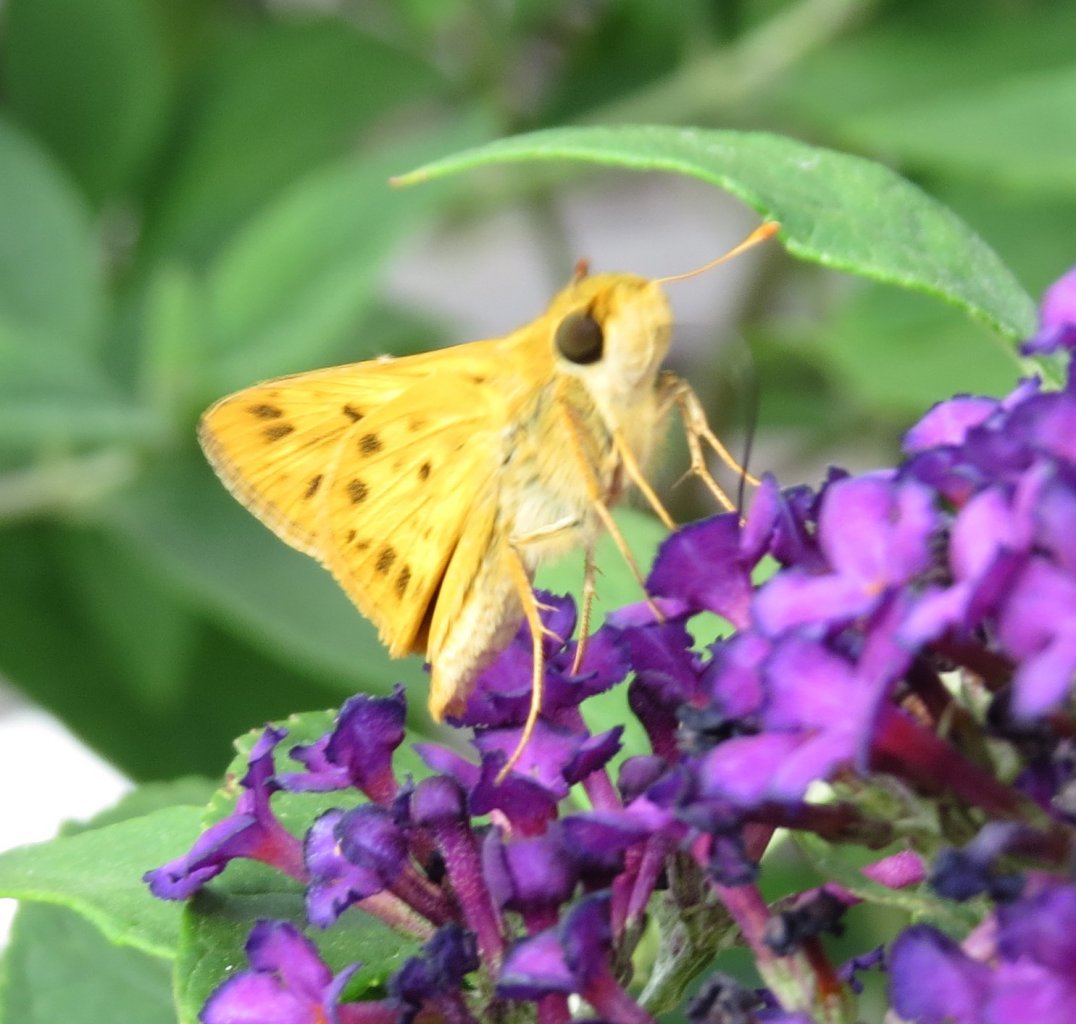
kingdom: Animalia
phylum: Arthropoda
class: Insecta
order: Lepidoptera
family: Hesperiidae
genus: Hylephila
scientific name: Hylephila phyleus
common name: Fiery Skipper
